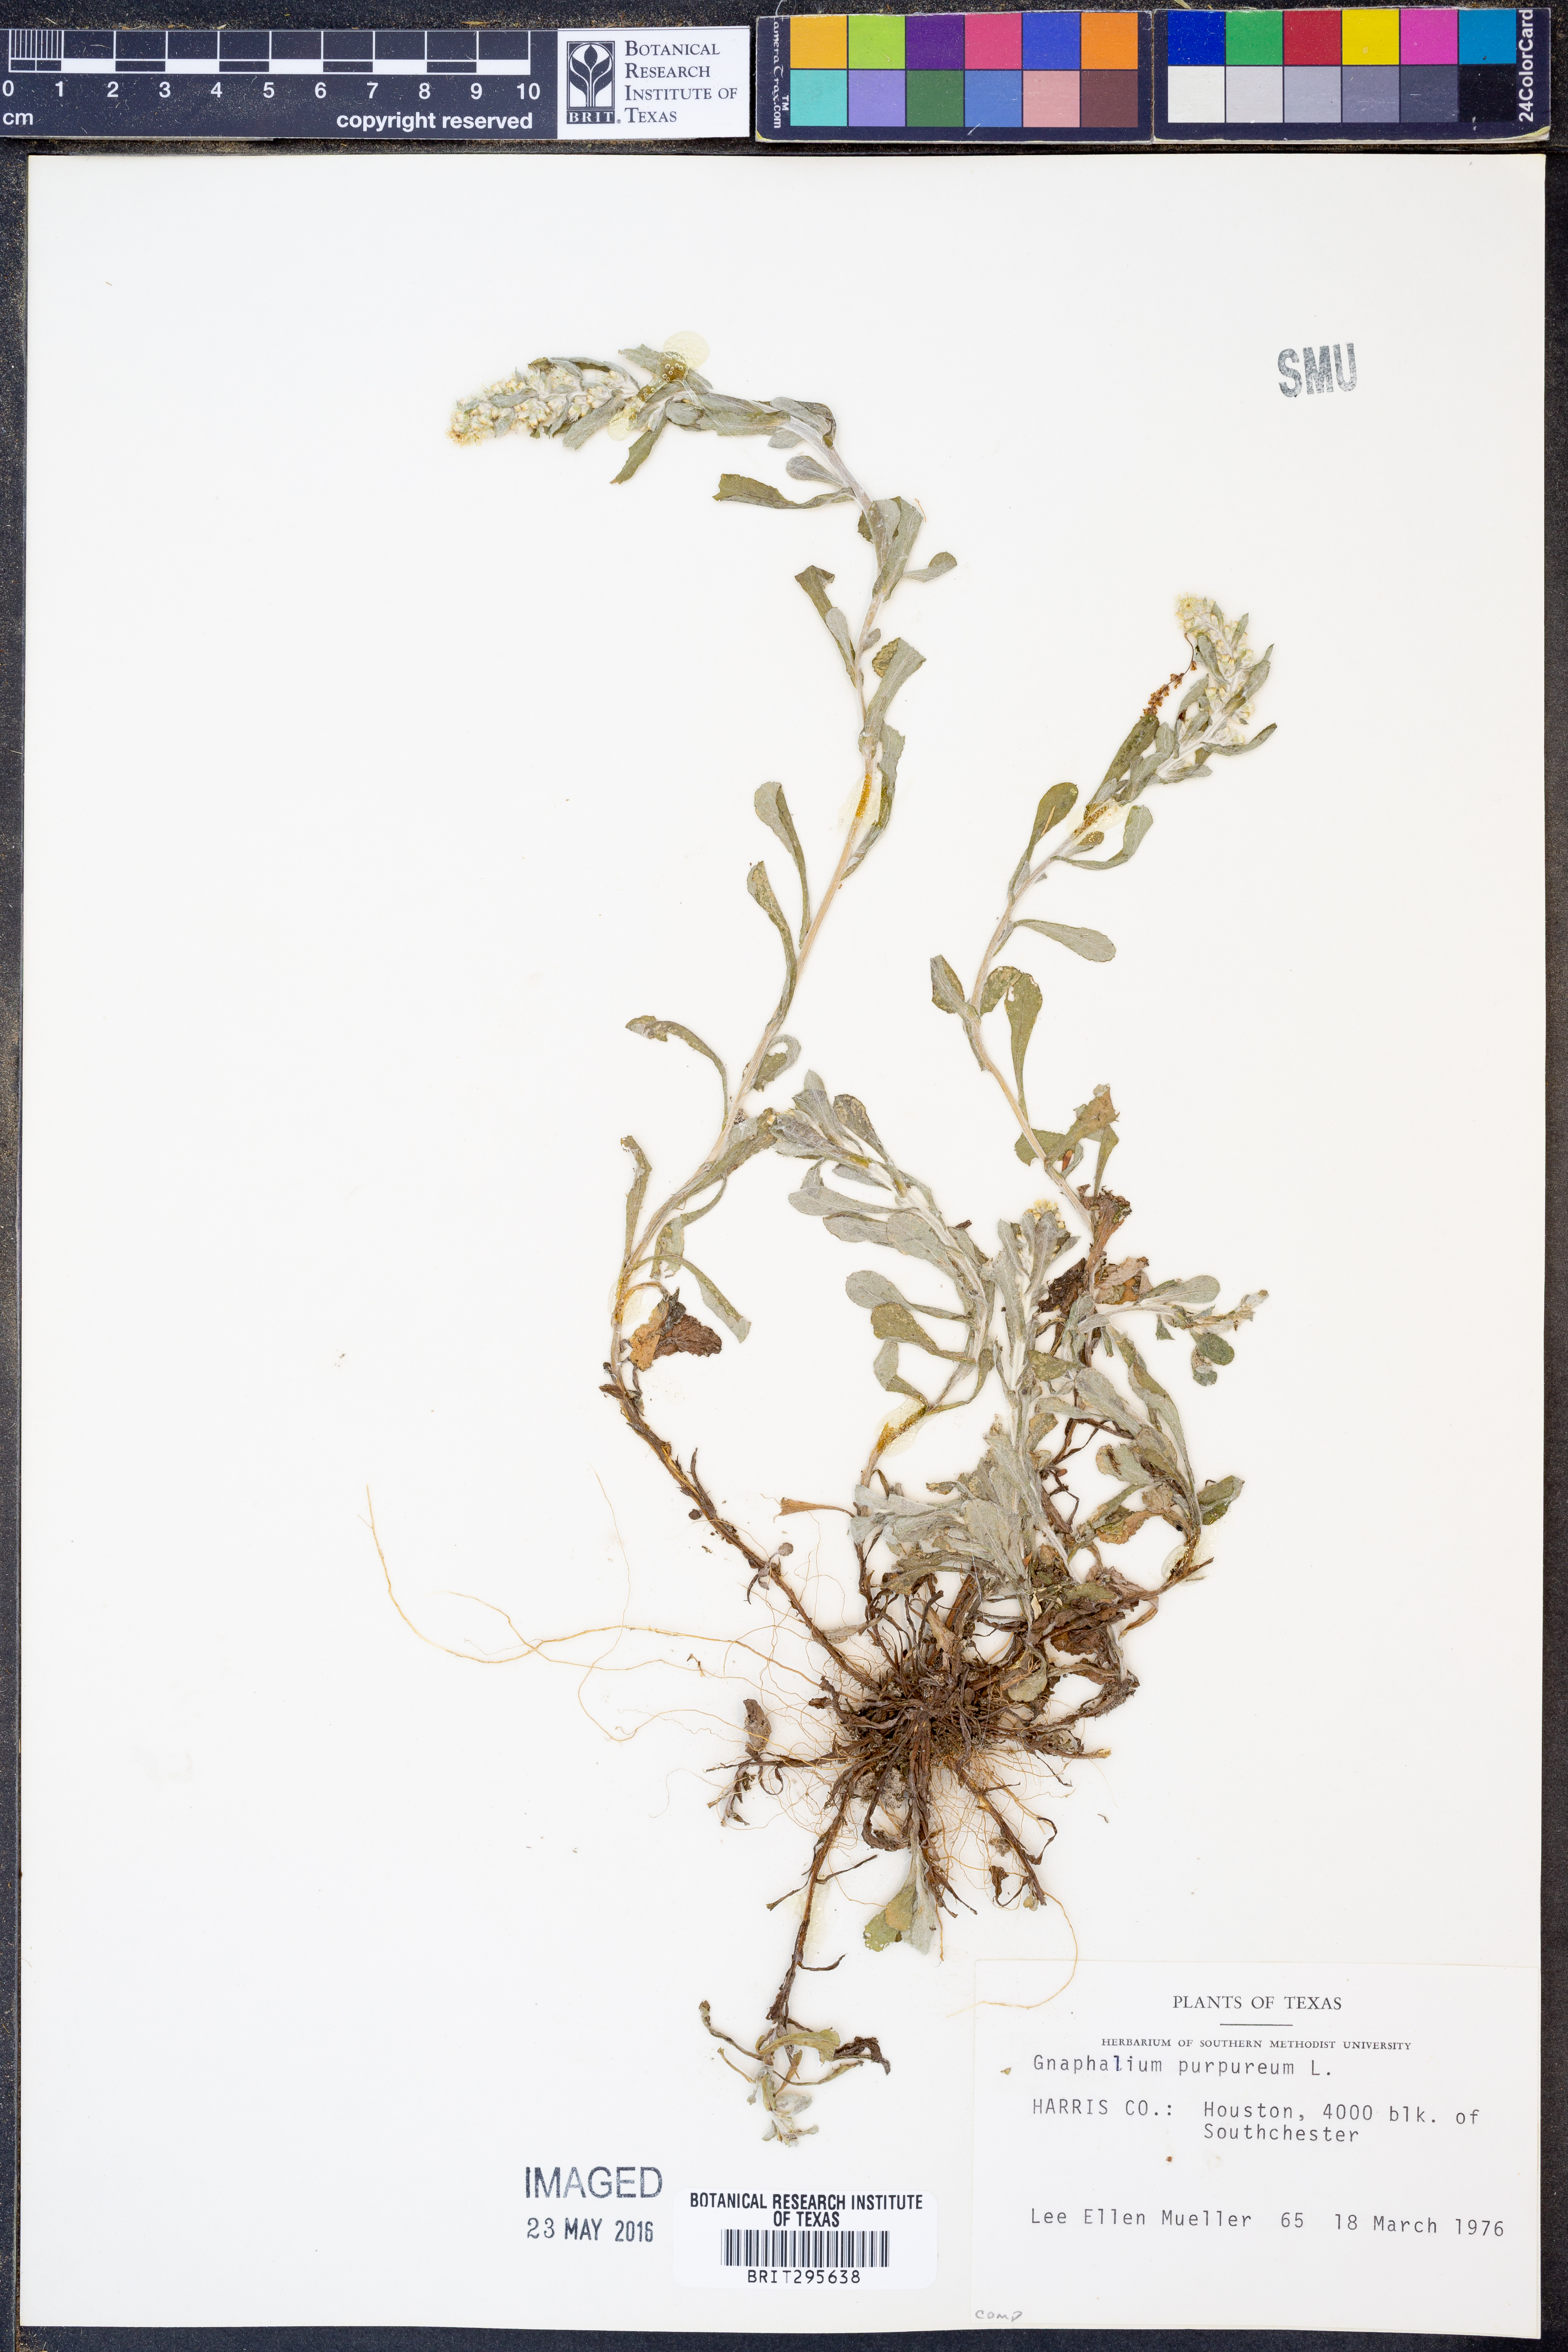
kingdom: Plantae
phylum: Tracheophyta
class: Magnoliopsida
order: Asterales
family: Asteraceae
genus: Gamochaeta
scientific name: Gamochaeta purpurea
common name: Purple cudweed
